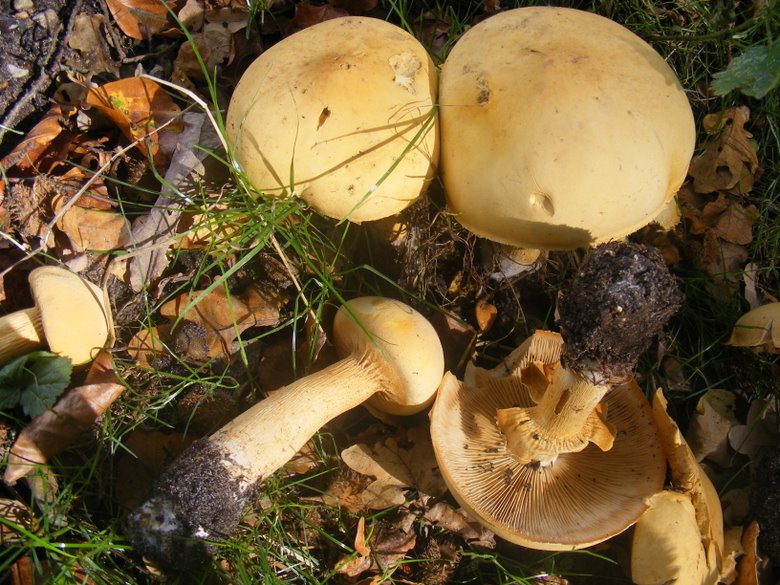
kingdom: Fungi
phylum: Basidiomycota
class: Agaricomycetes
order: Agaricales
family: Tricholomataceae
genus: Phaeolepiota
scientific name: Phaeolepiota aurea
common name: gyldenhat
